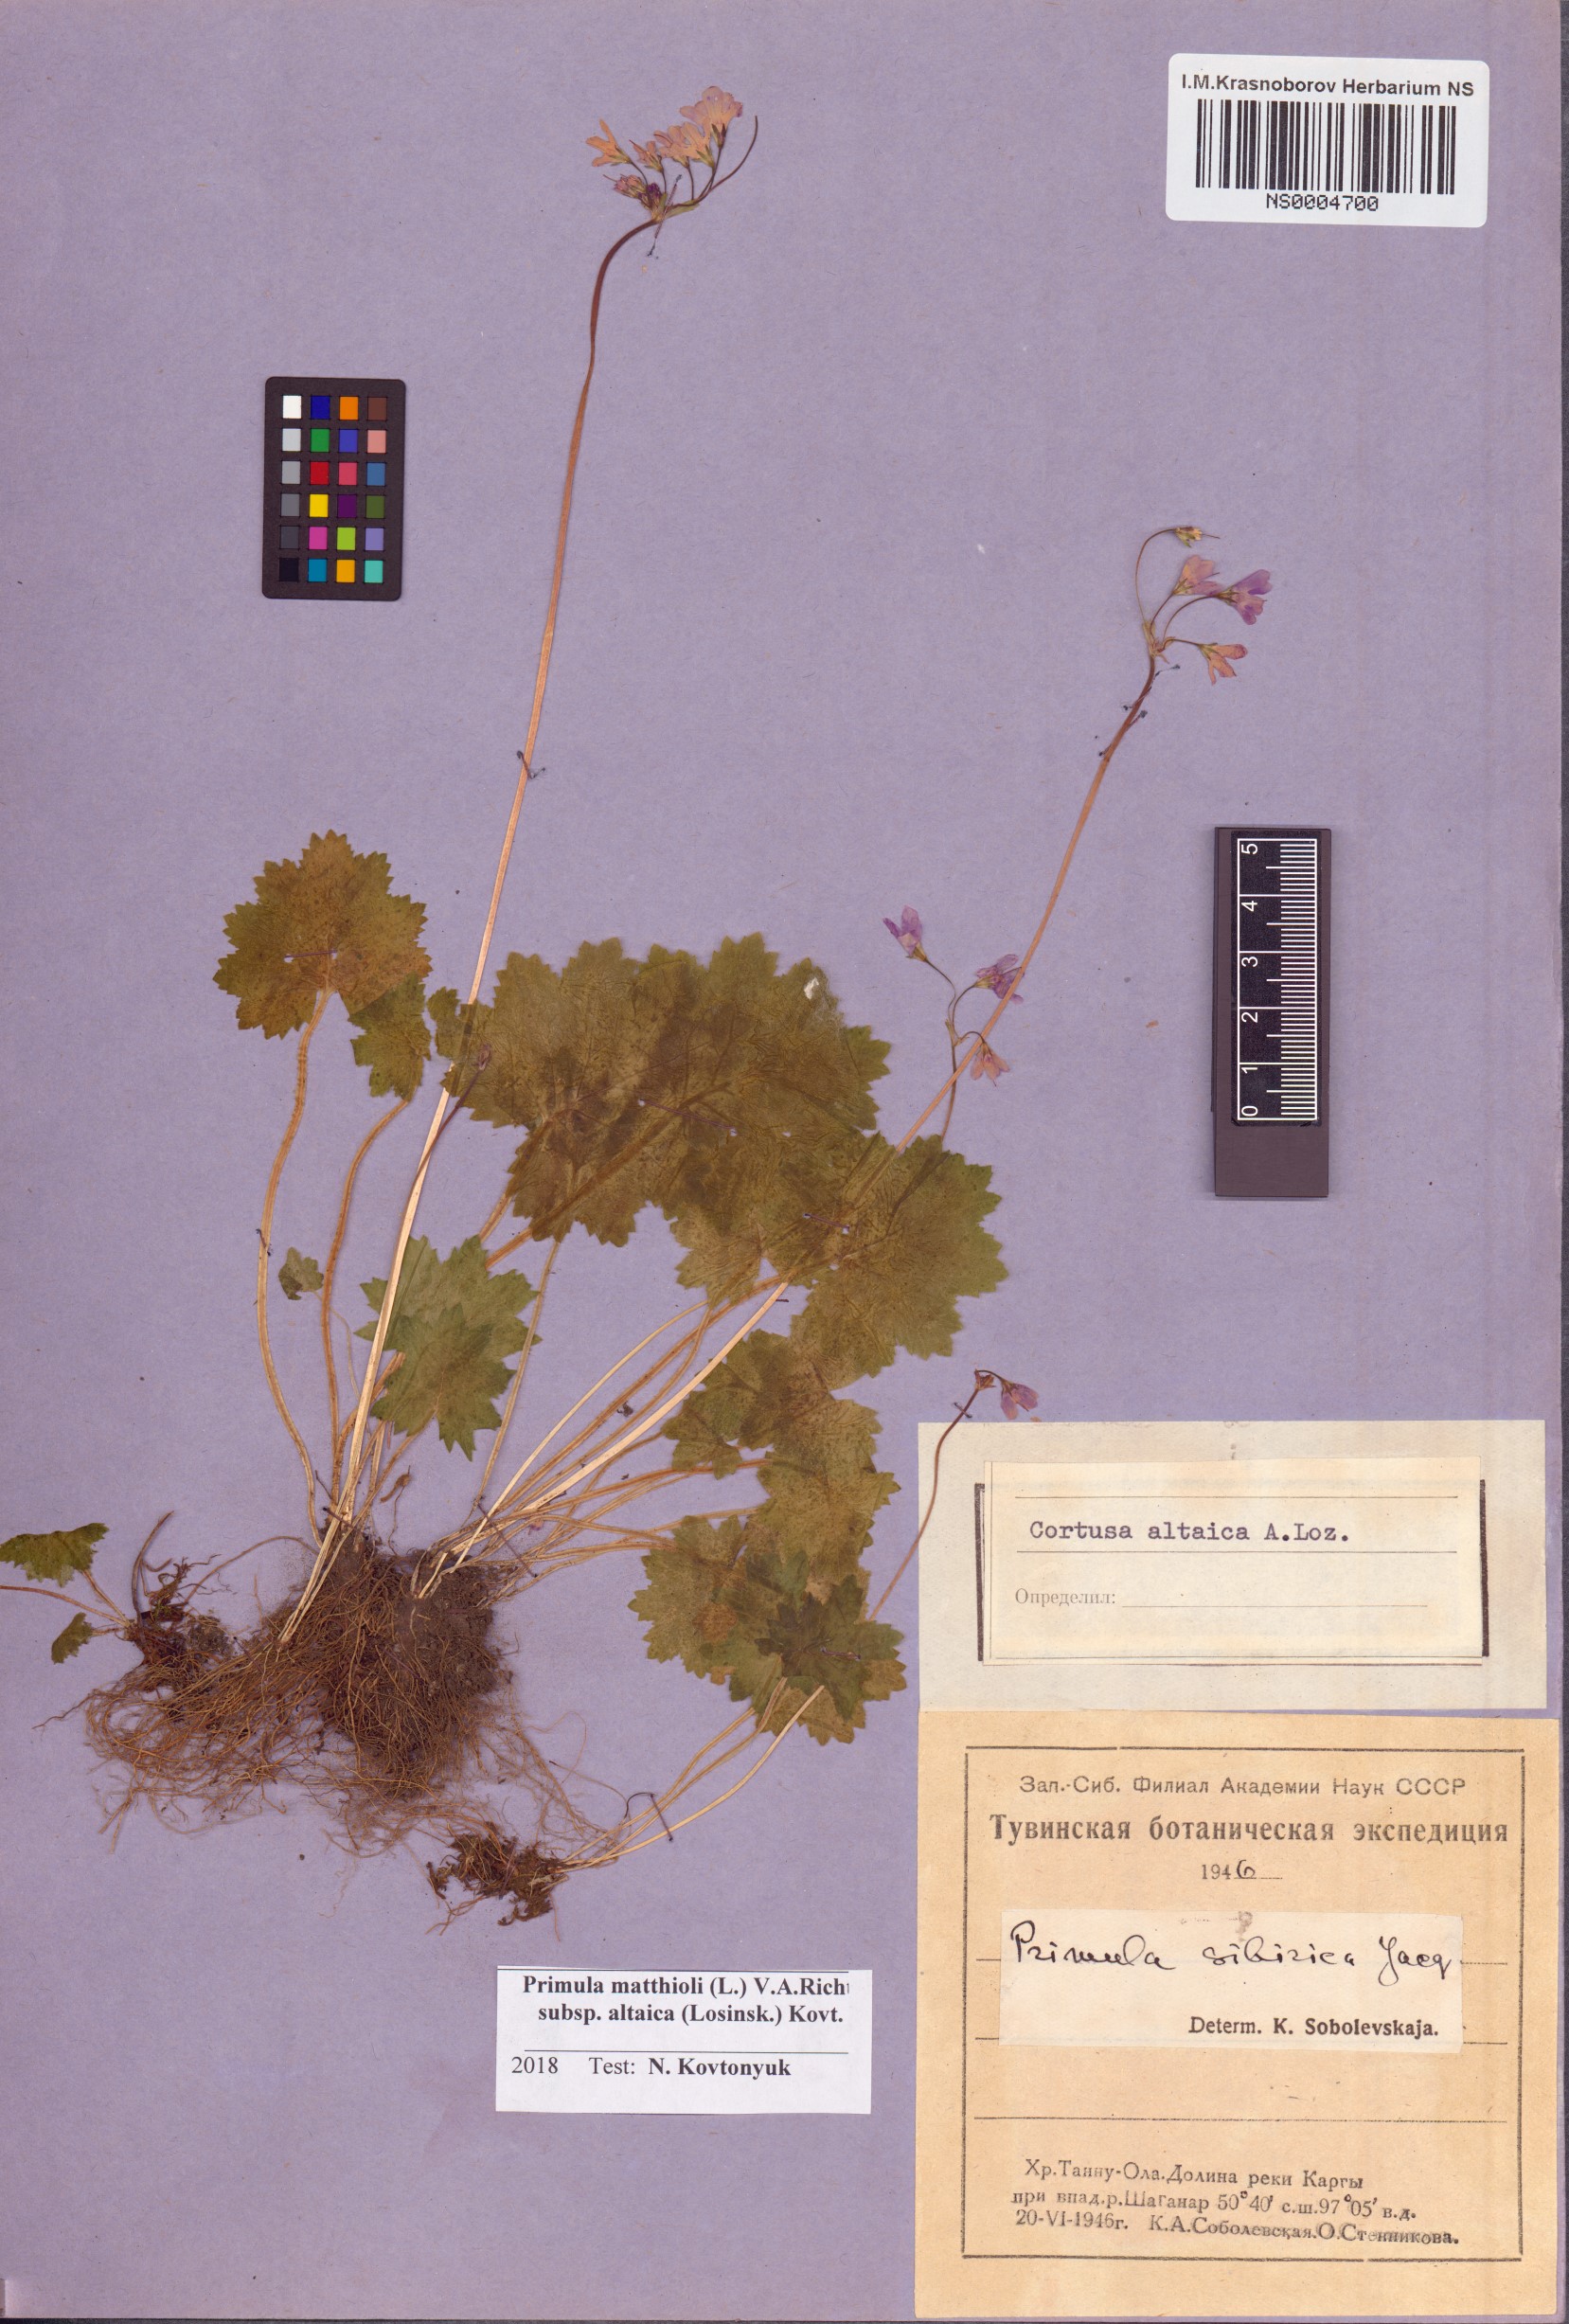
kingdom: Plantae
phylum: Tracheophyta
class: Magnoliopsida
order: Ericales
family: Primulaceae
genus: Primula
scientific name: Primula matthioli
